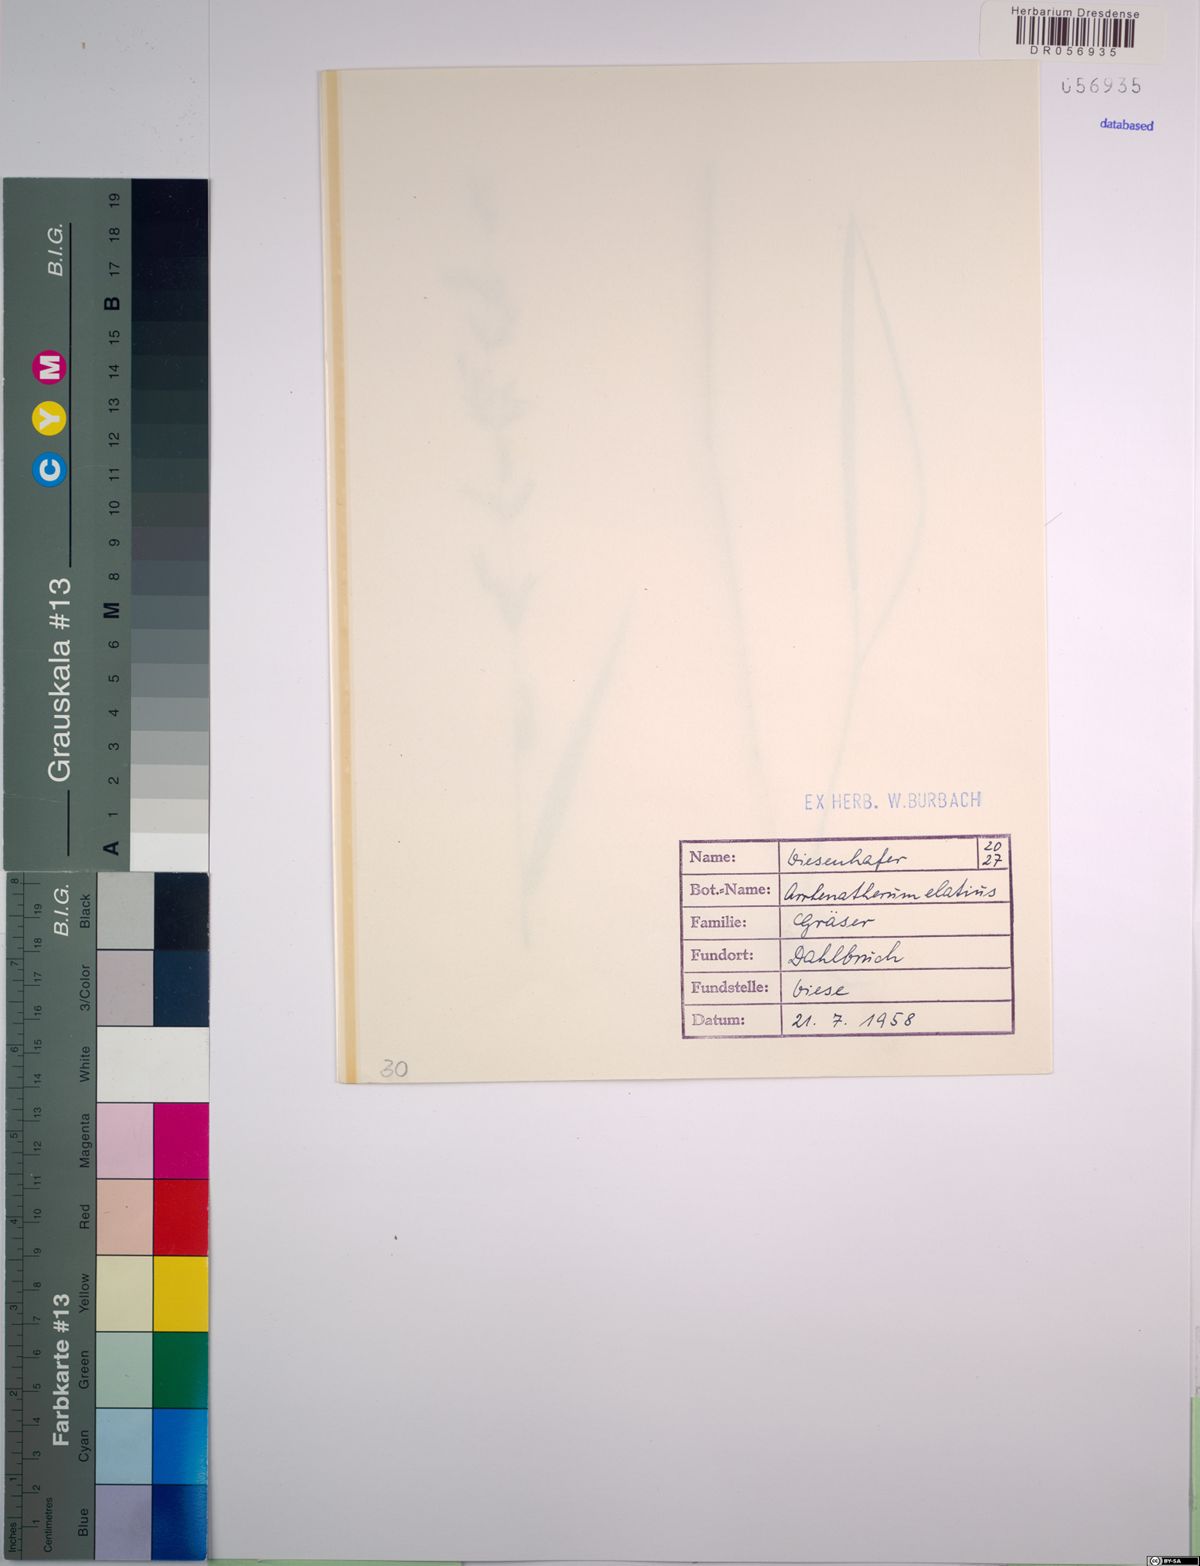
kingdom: Plantae
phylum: Tracheophyta
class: Liliopsida
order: Poales
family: Poaceae
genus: Arrhenatherum
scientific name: Arrhenatherum elatius
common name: Tall oatgrass
